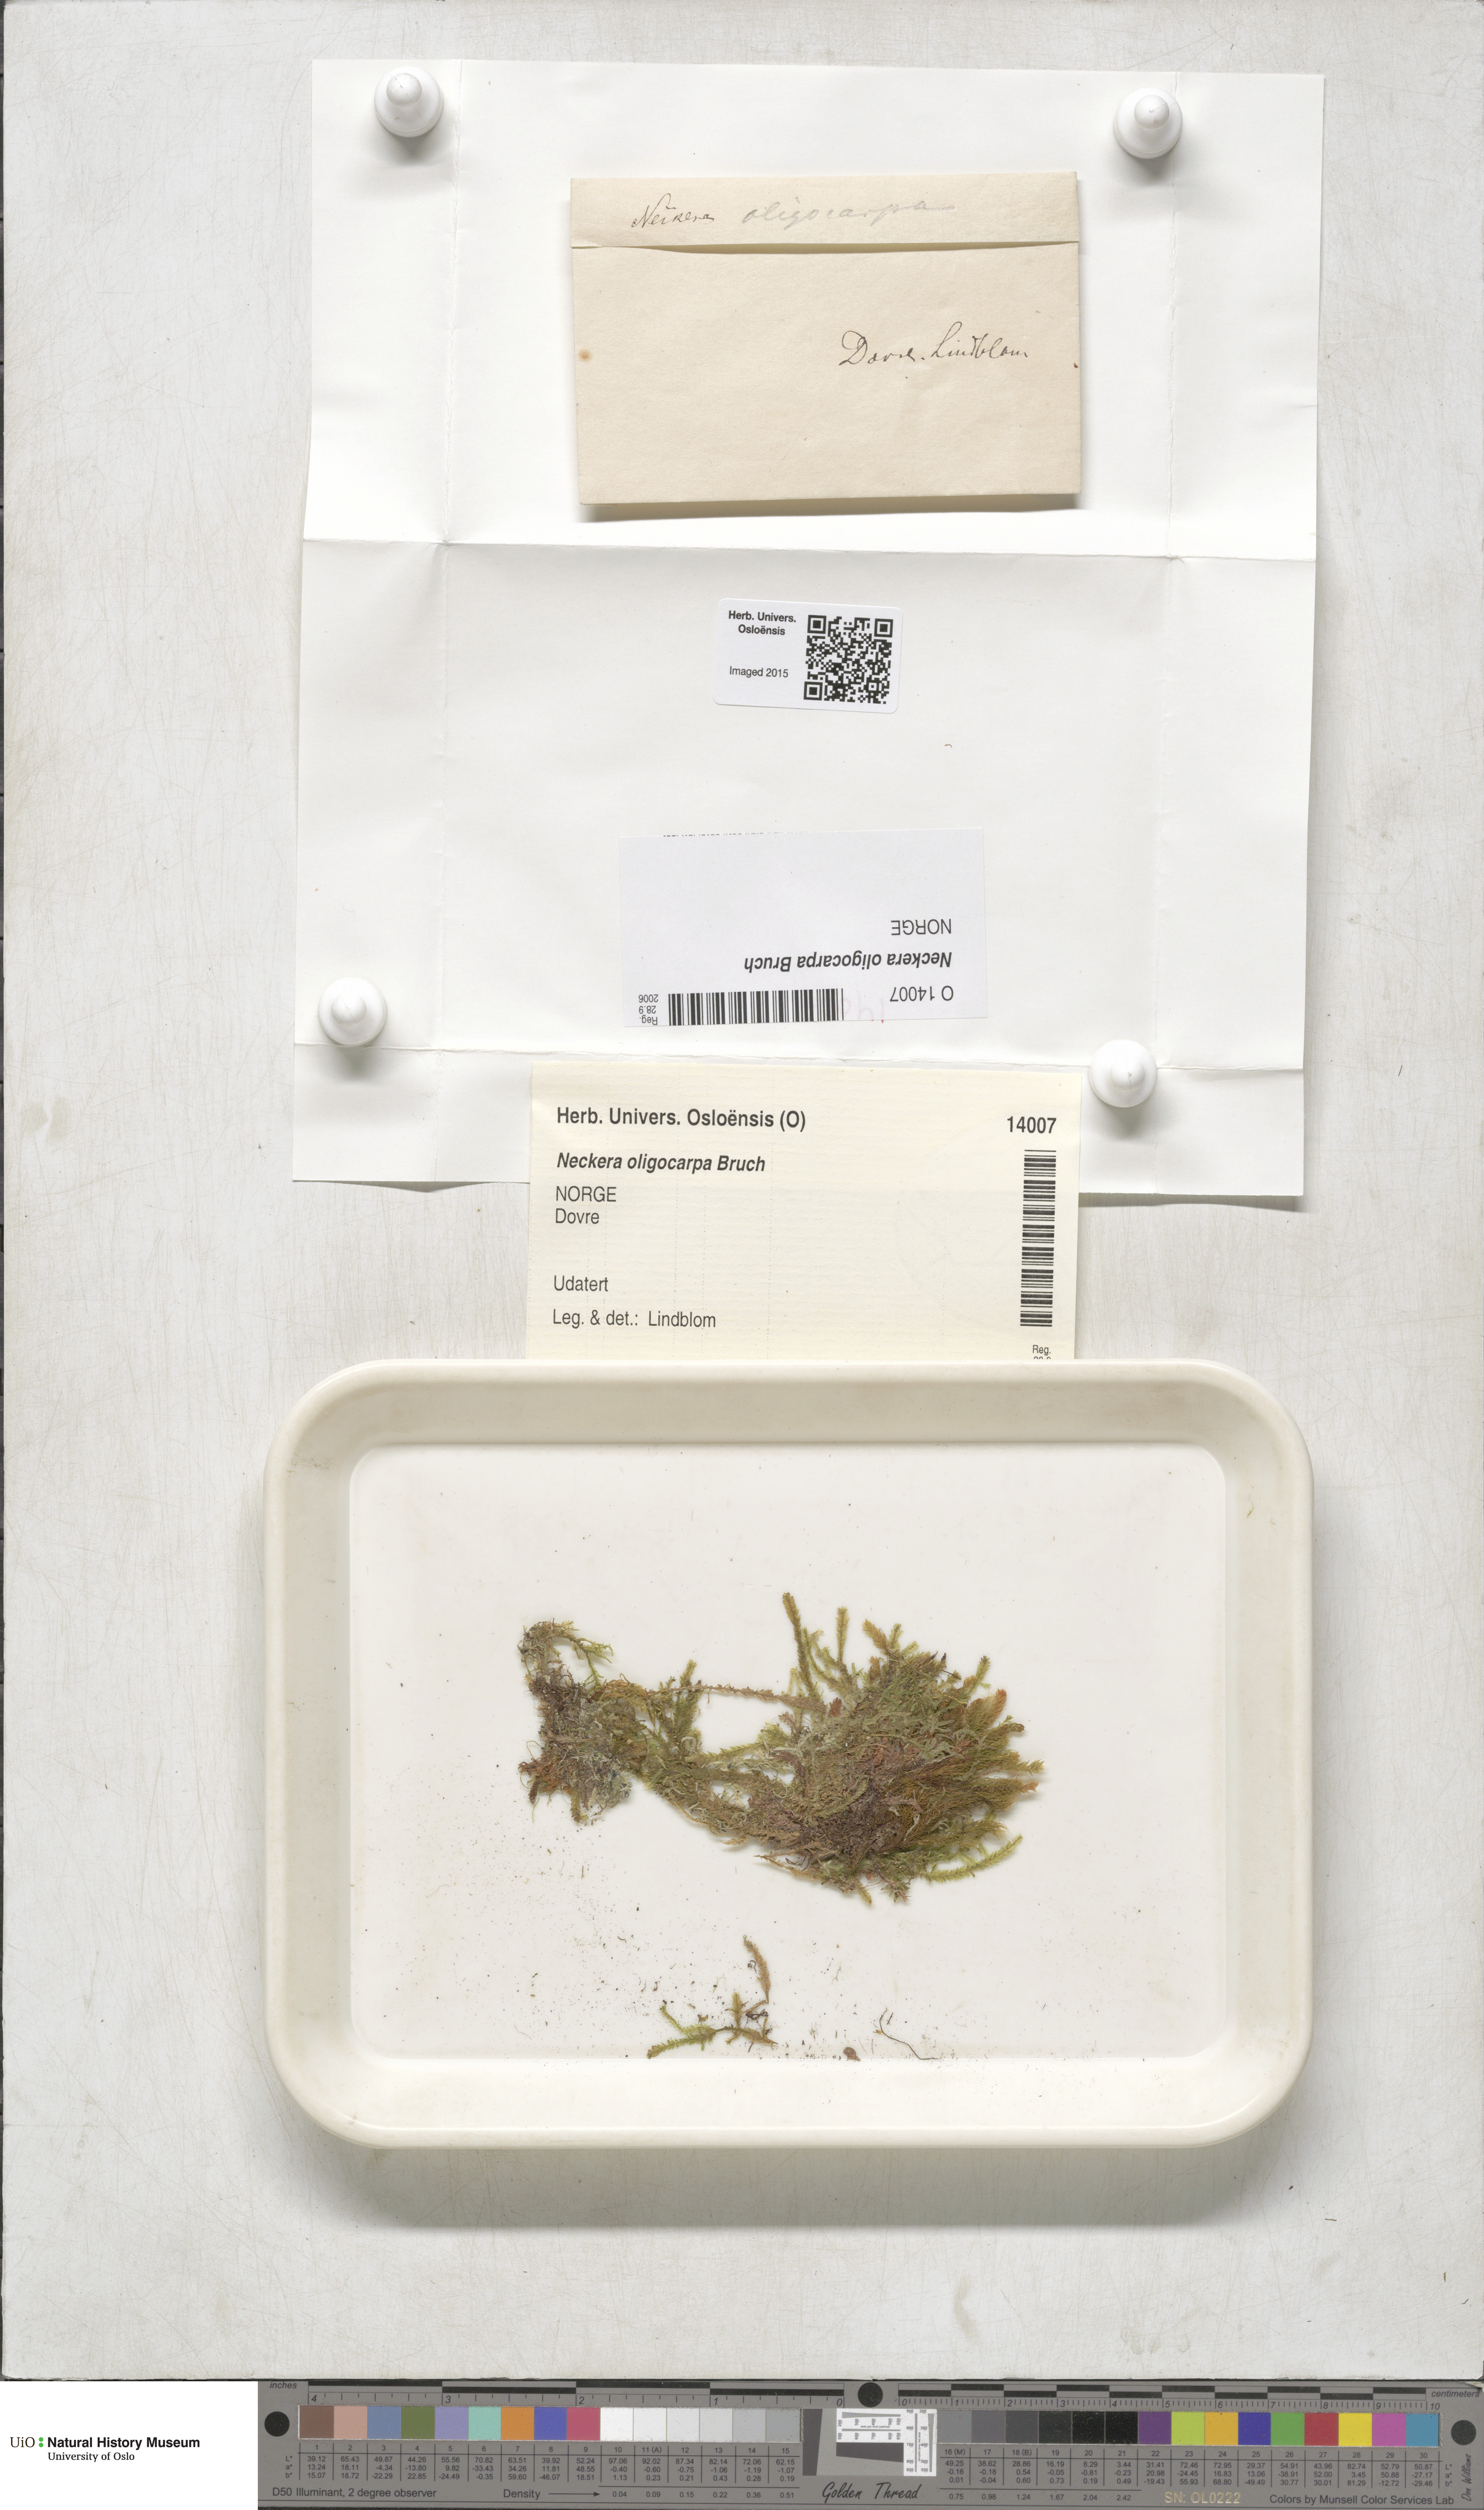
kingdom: Plantae
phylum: Bryophyta
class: Bryopsida
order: Hypnales
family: Neckeraceae
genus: Neckera
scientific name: Neckera oligocarpa
